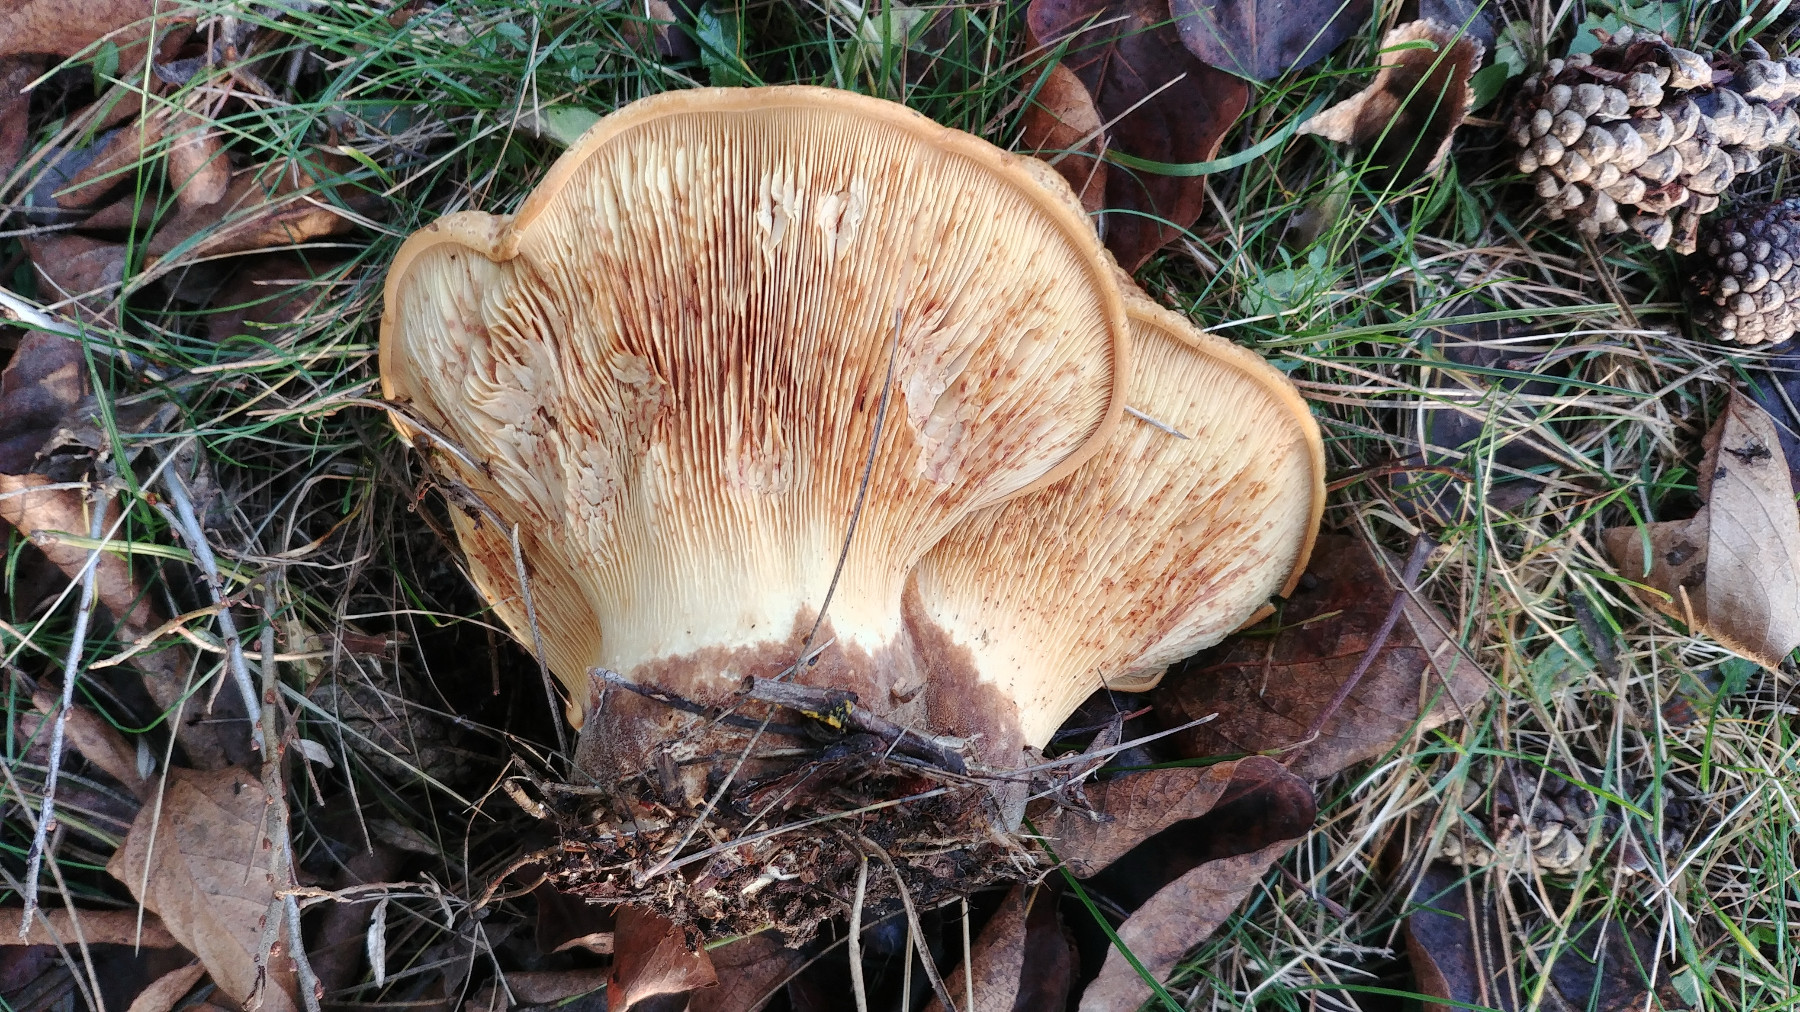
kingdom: Fungi
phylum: Basidiomycota
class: Agaricomycetes
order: Boletales
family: Tapinellaceae
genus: Tapinella
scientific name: Tapinella atrotomentosa
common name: sortfiltet viftesvamp
